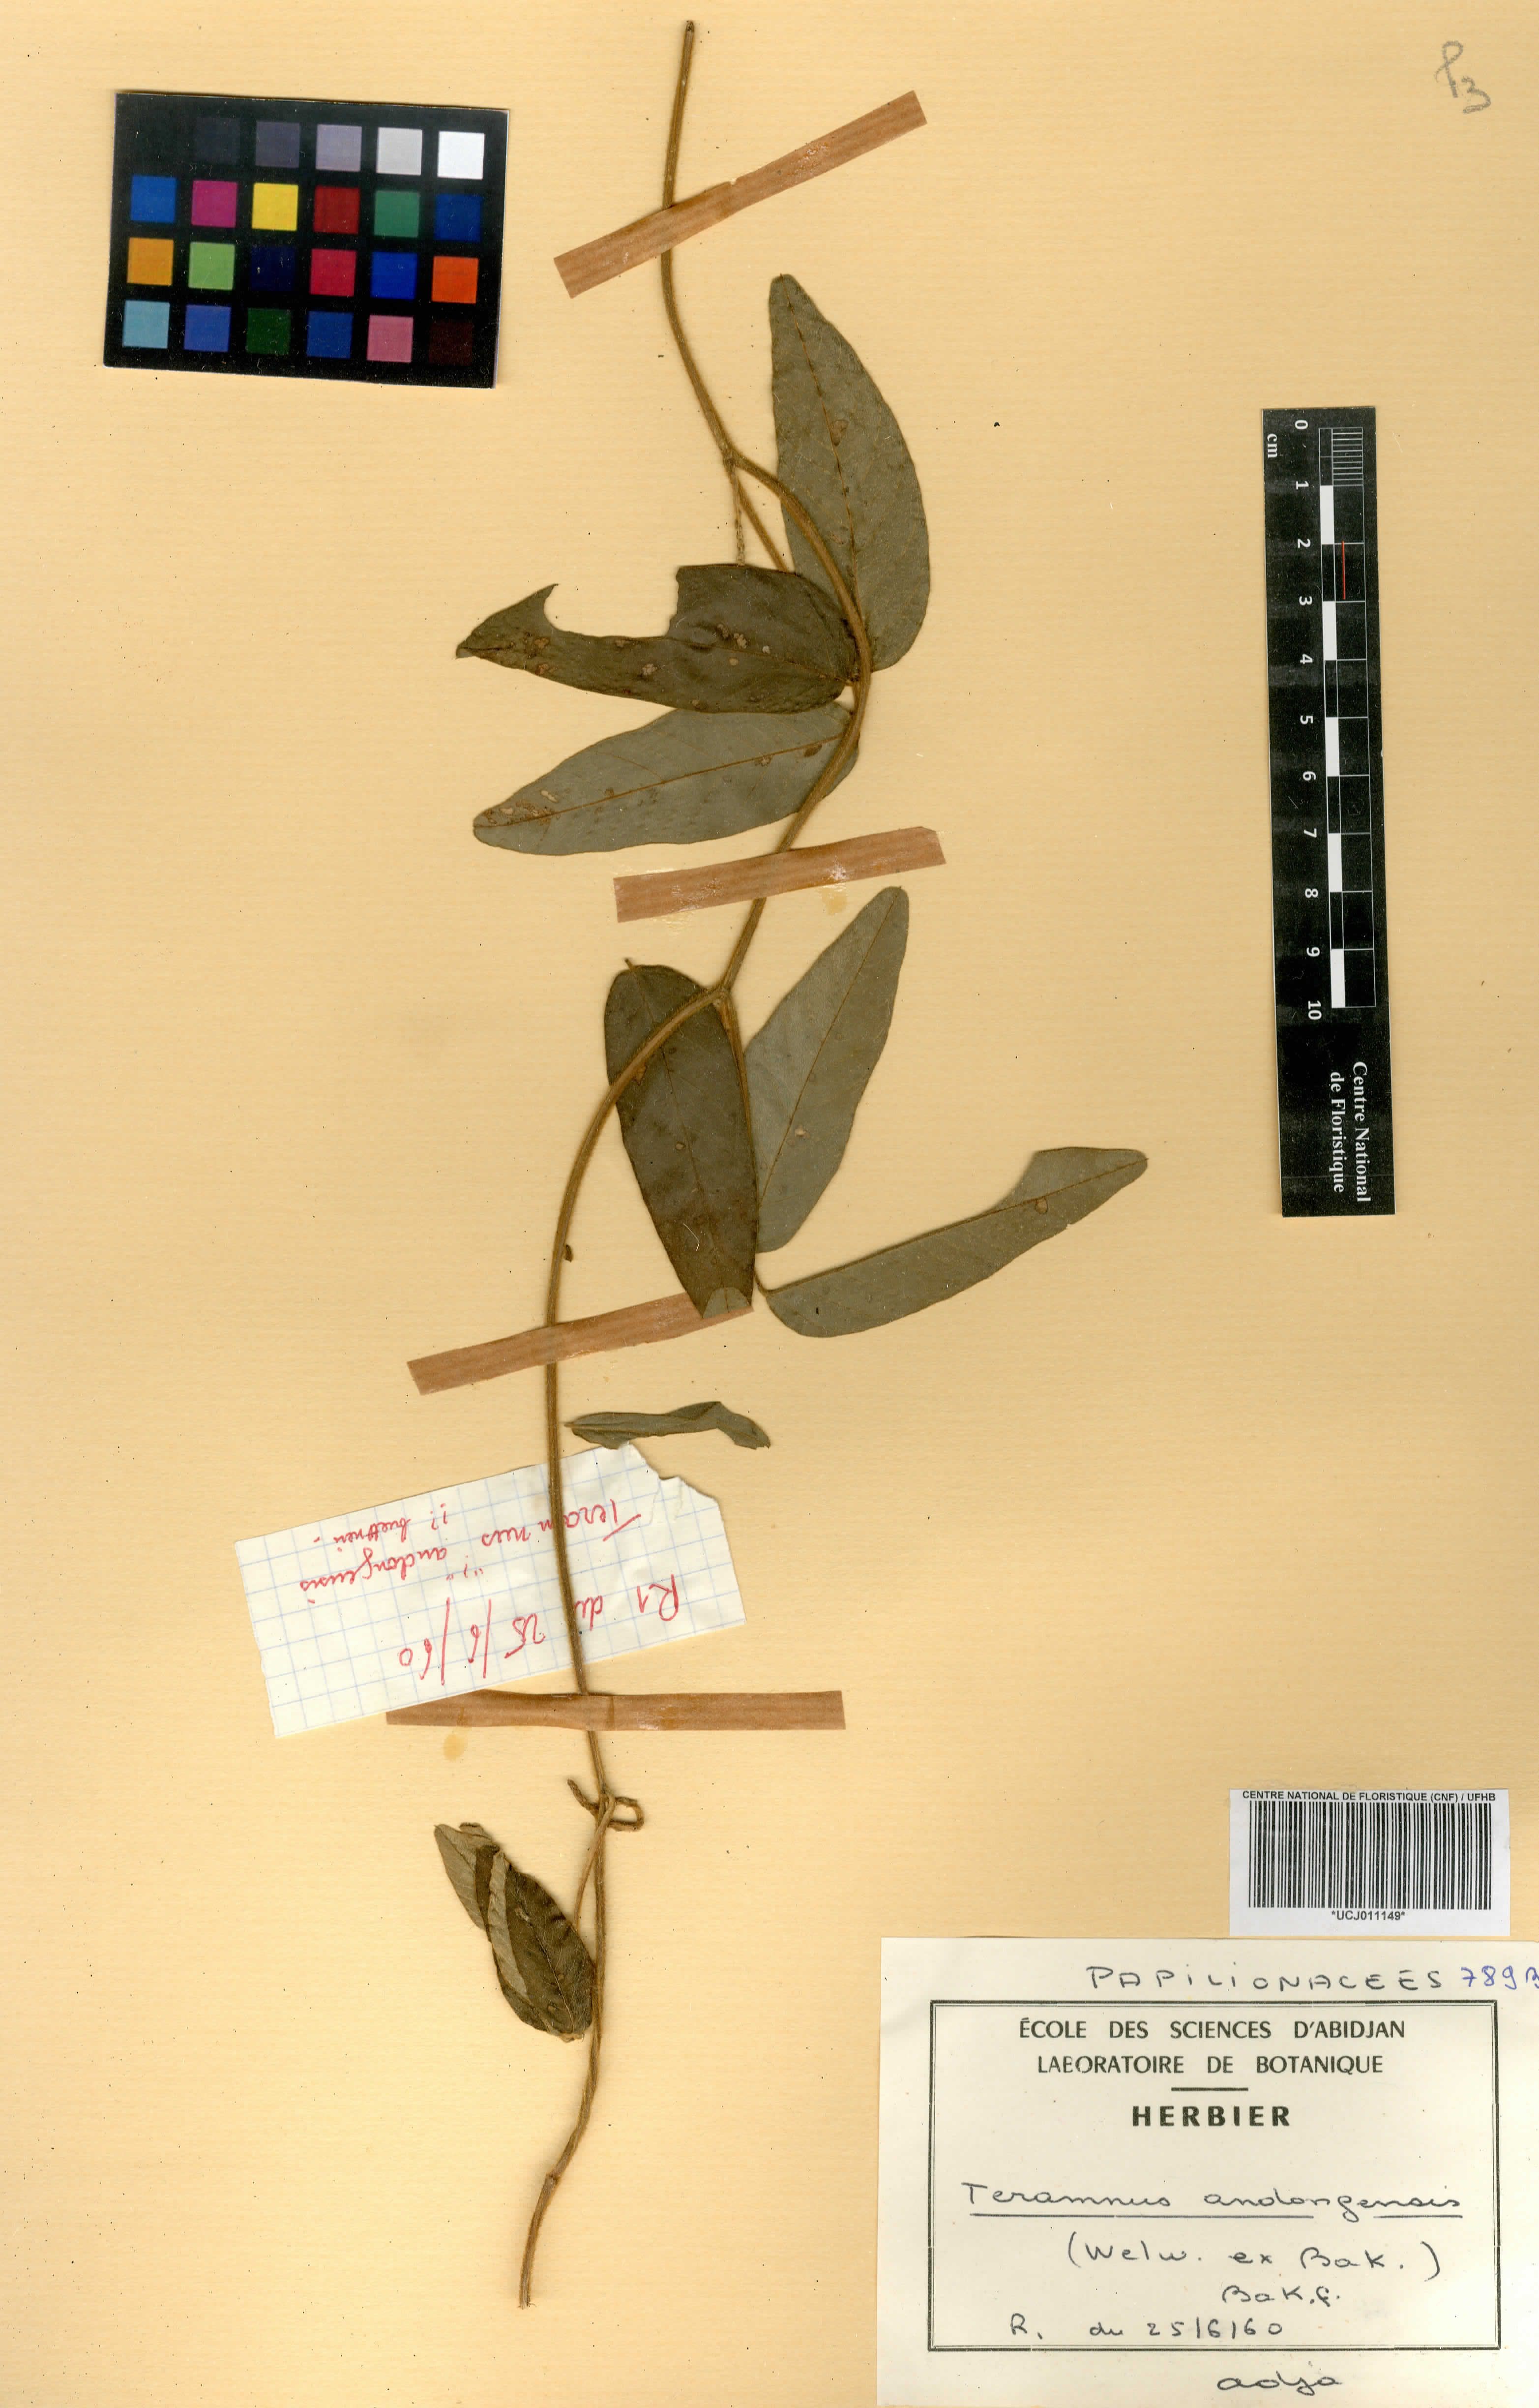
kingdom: Plantae
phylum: Tracheophyta
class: Magnoliopsida
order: Fabales
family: Fabaceae
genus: Teramnus
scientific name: Teramnus uncinatus
